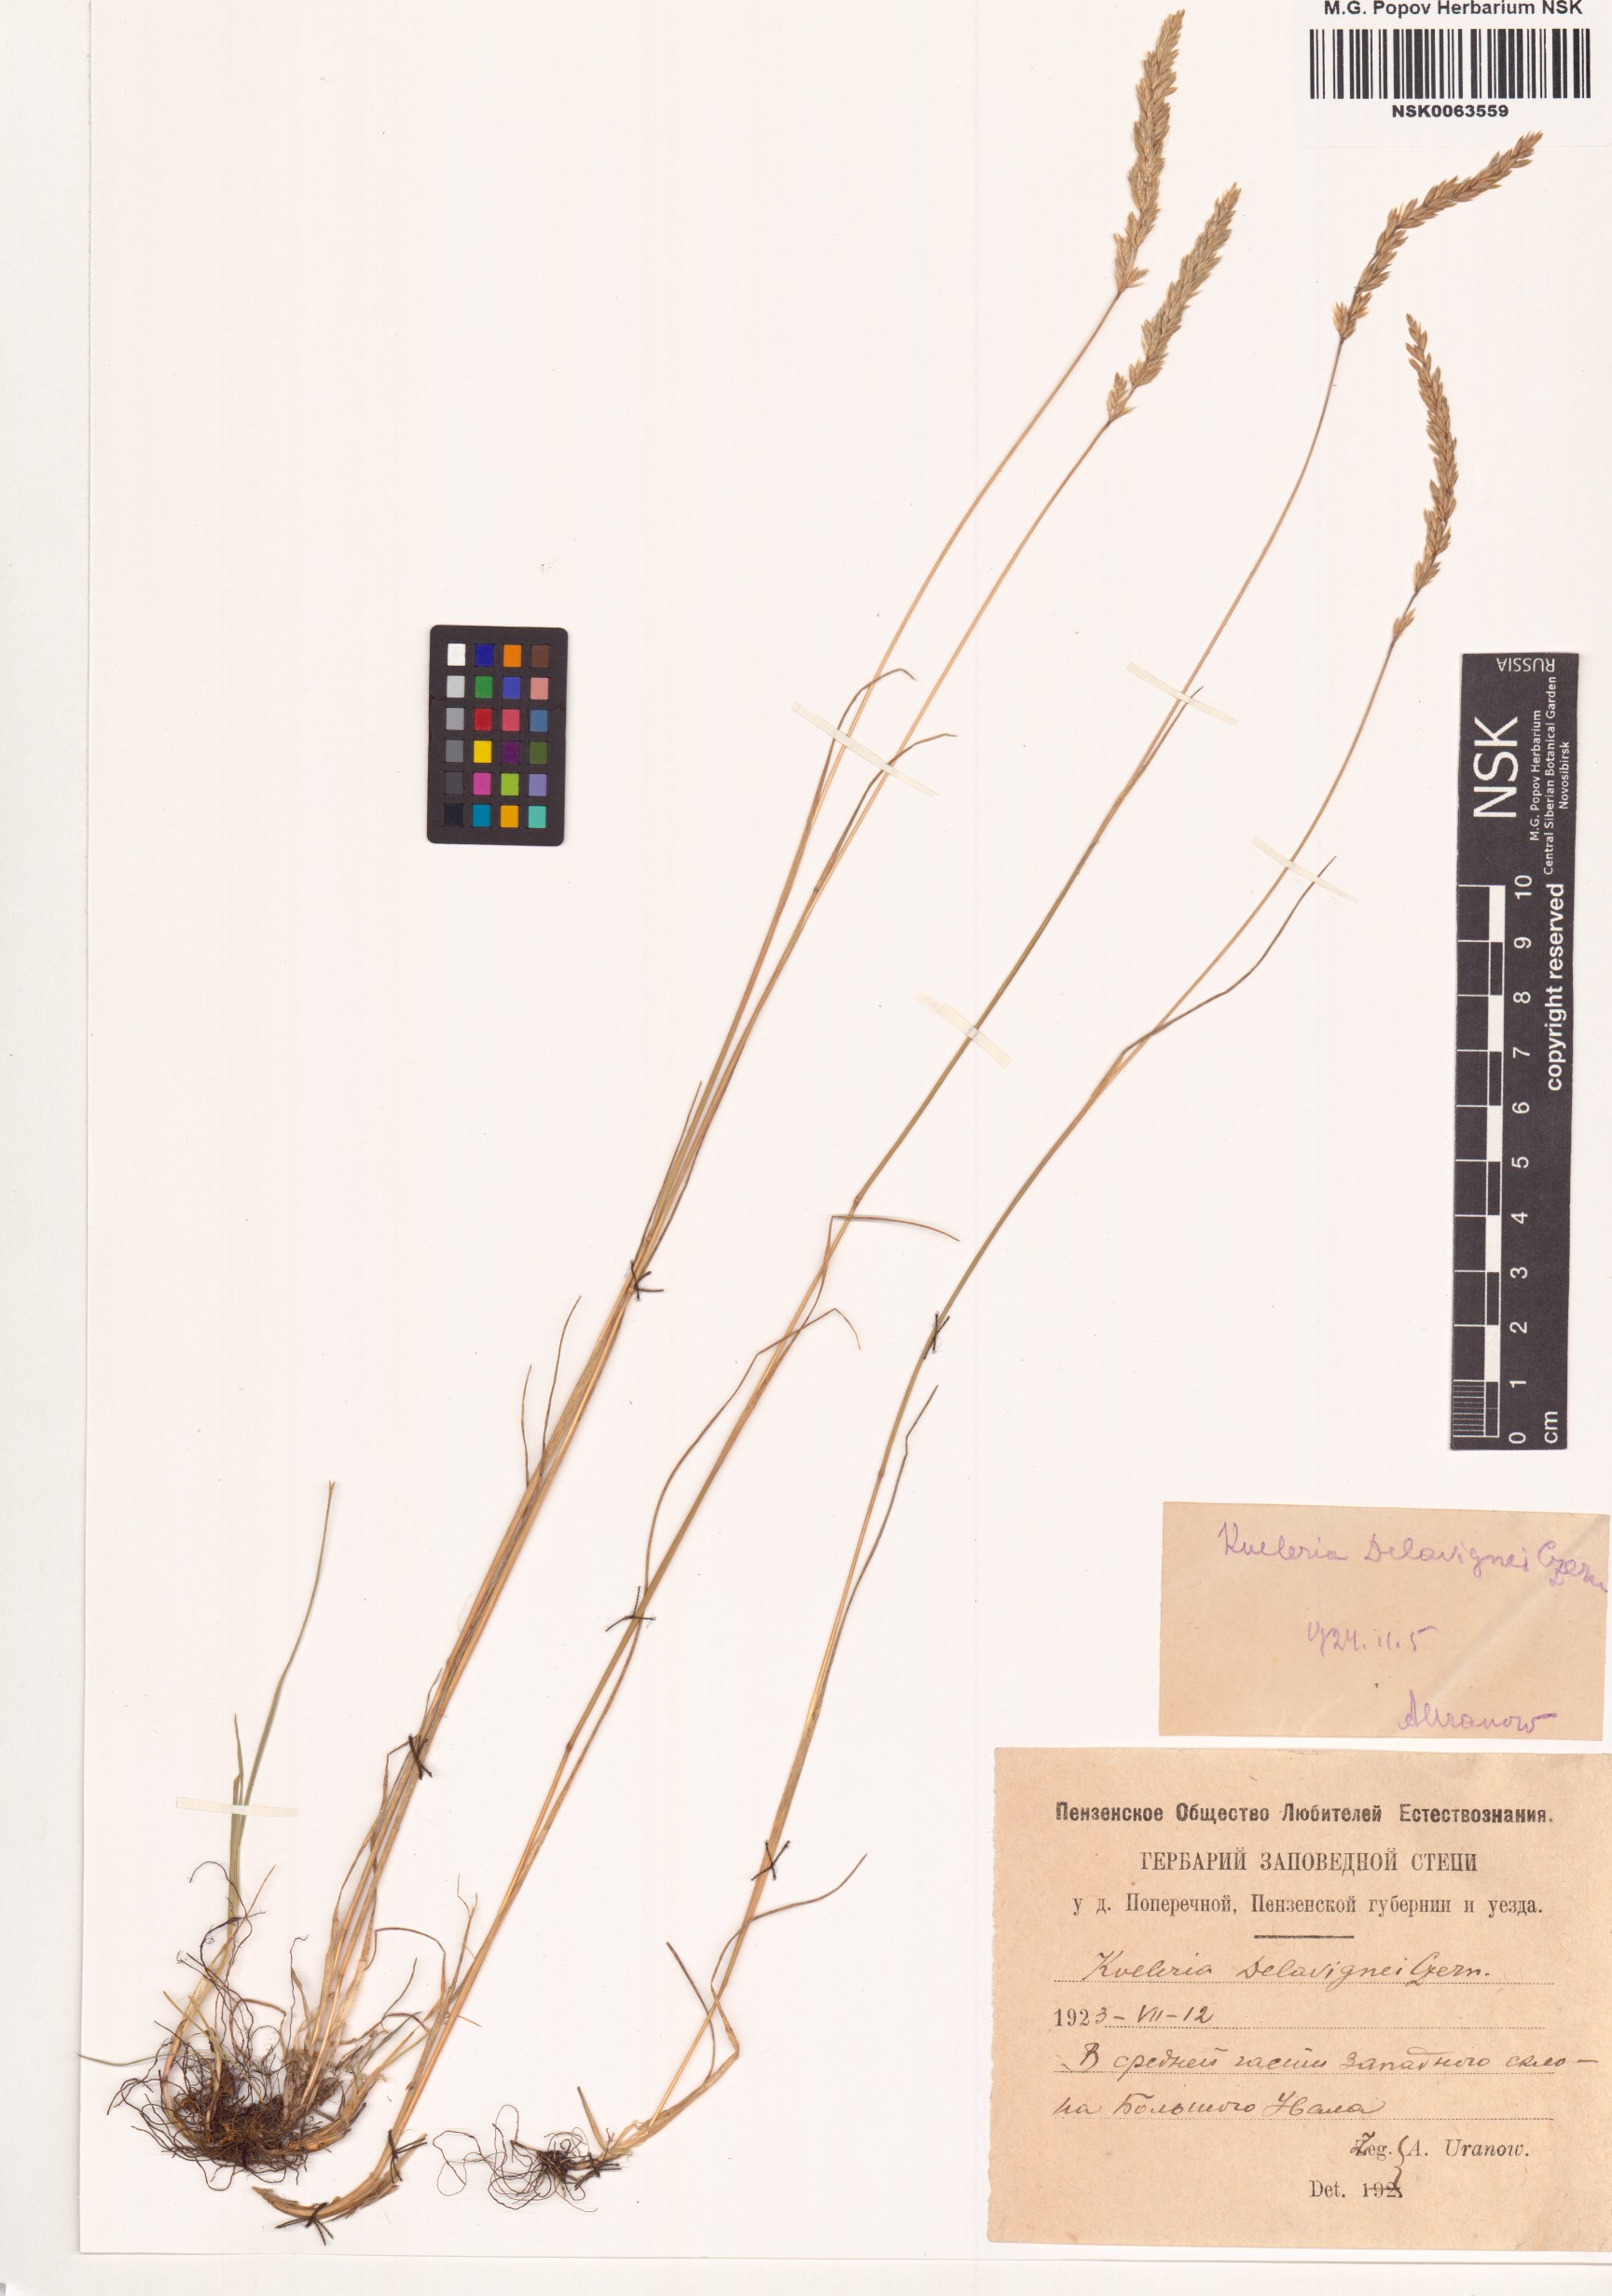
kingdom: Plantae
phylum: Tracheophyta
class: Liliopsida
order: Poales
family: Poaceae
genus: Koeleria
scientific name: Koeleria delavignei
